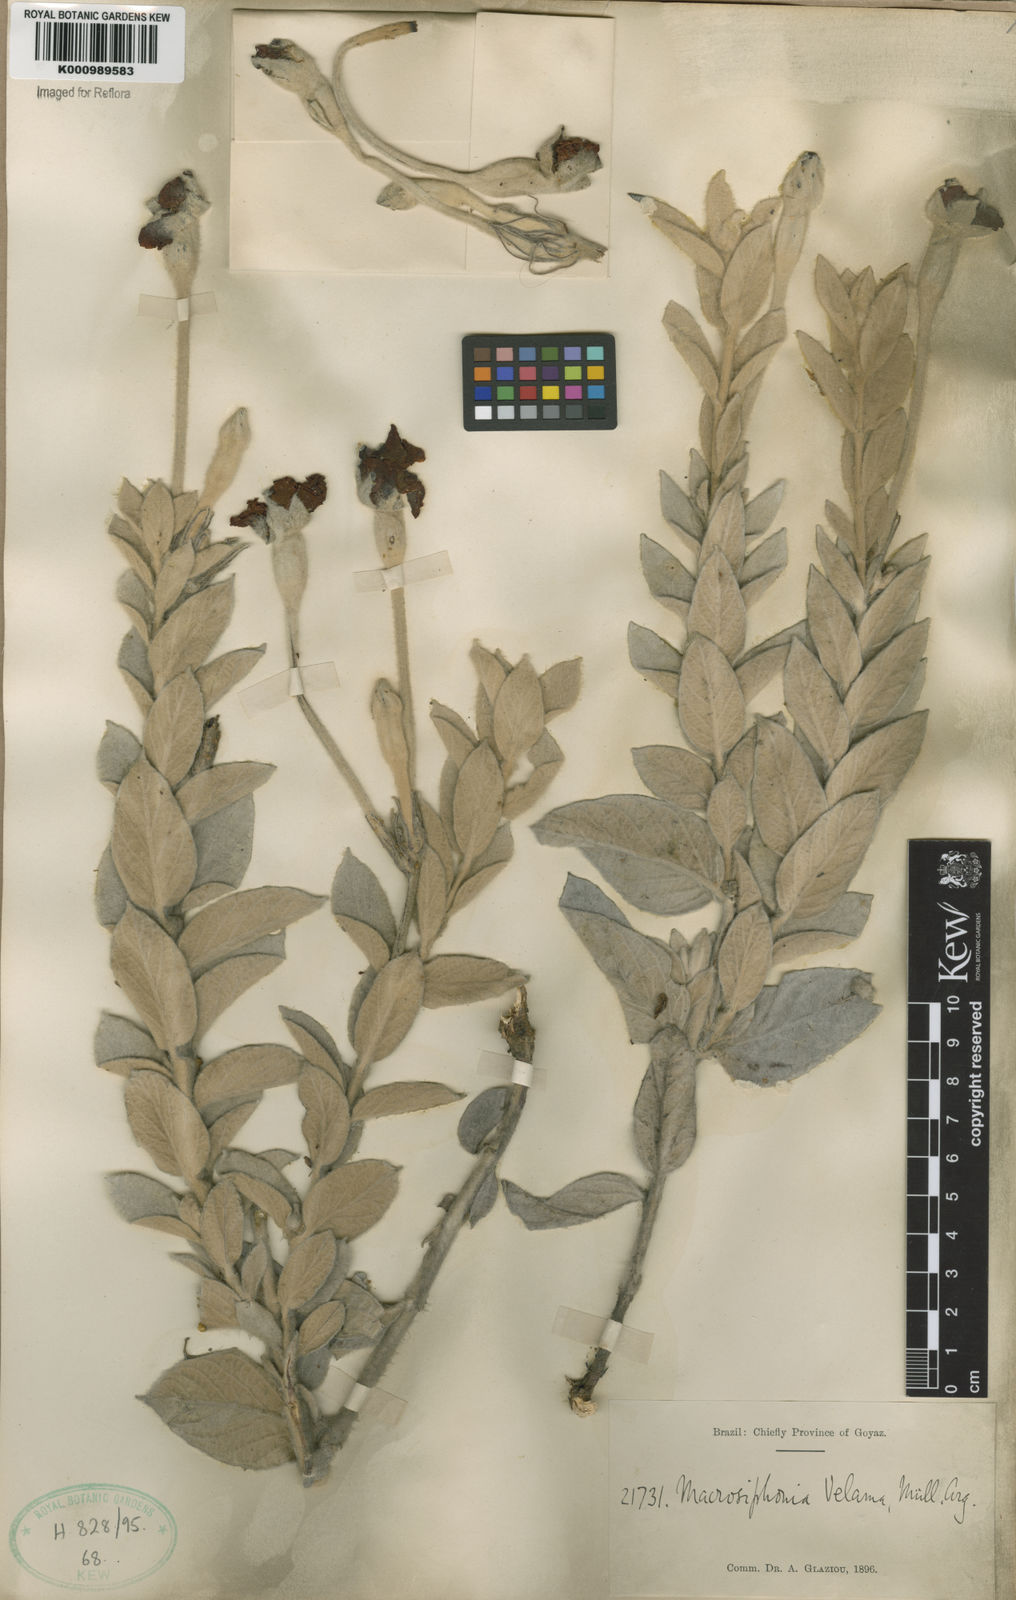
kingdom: Plantae
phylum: Tracheophyta
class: Magnoliopsida
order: Gentianales
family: Apocynaceae
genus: Mandevilla
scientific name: Mandevilla velame
